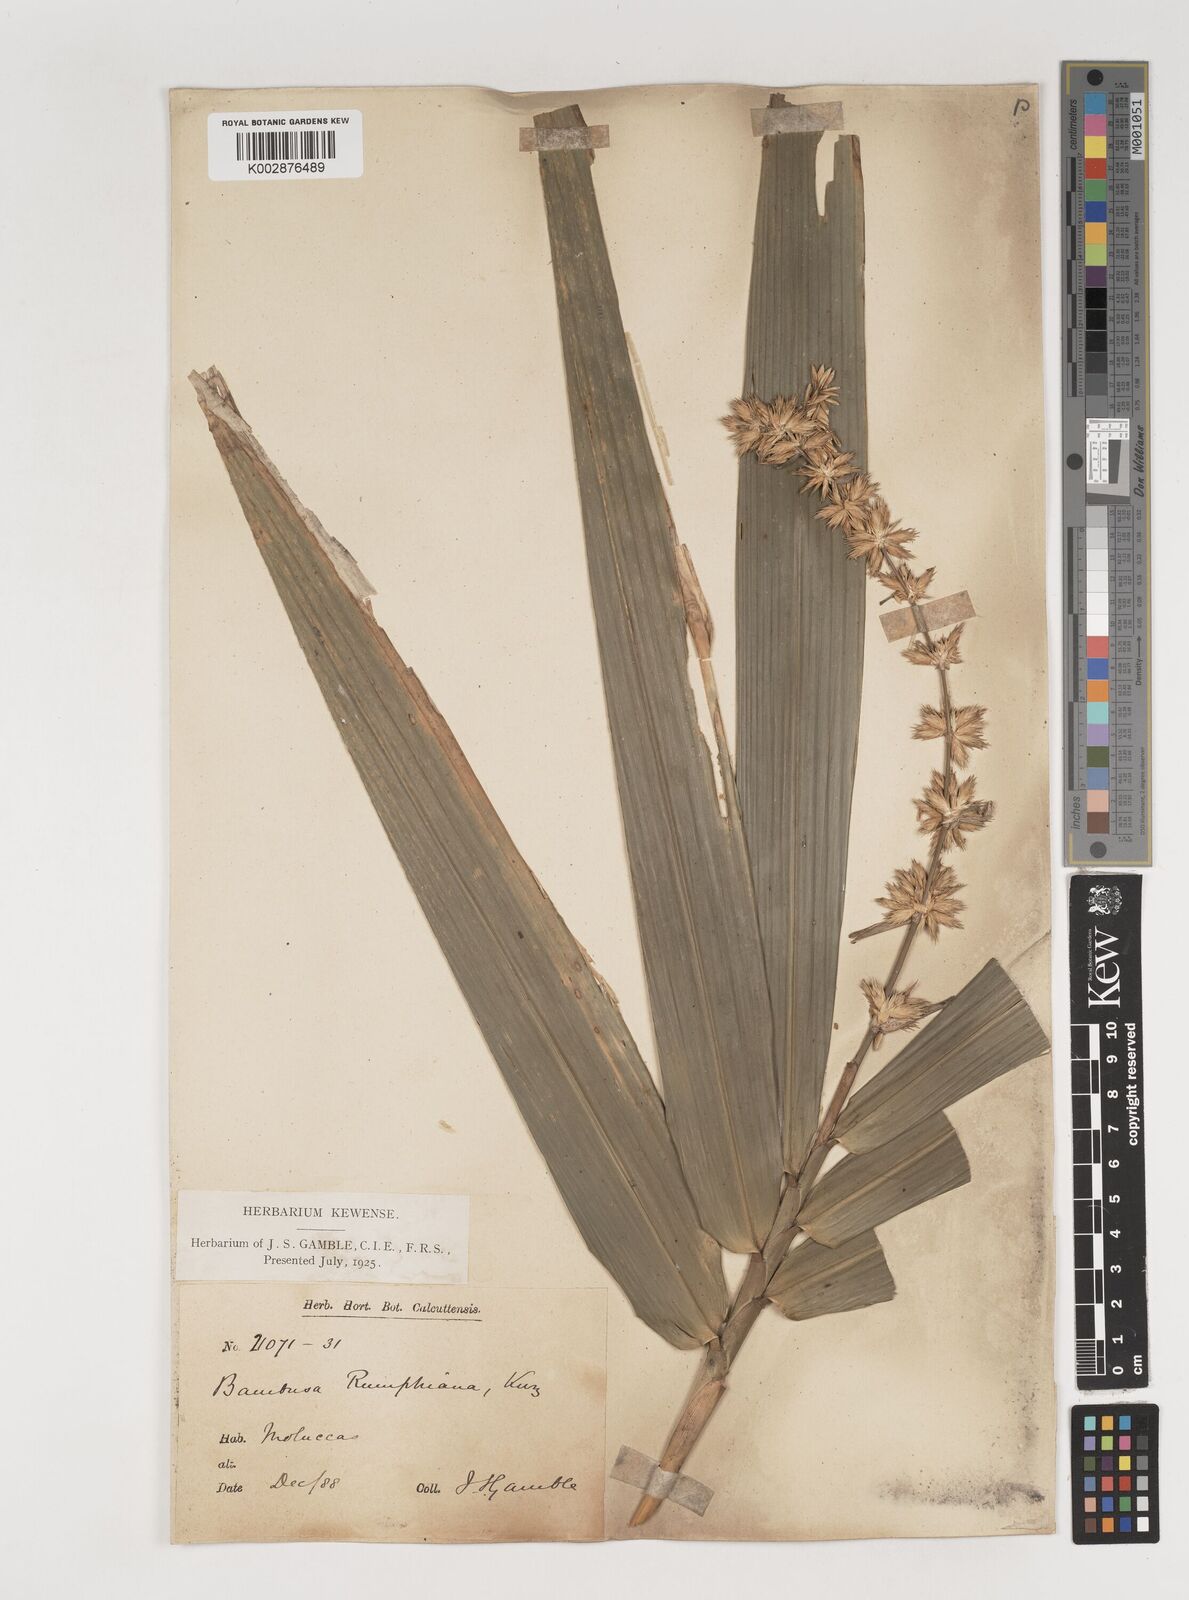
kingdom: Plantae
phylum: Tracheophyta
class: Liliopsida
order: Poales
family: Poaceae
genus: Neololeba
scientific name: Neololeba amahussana
